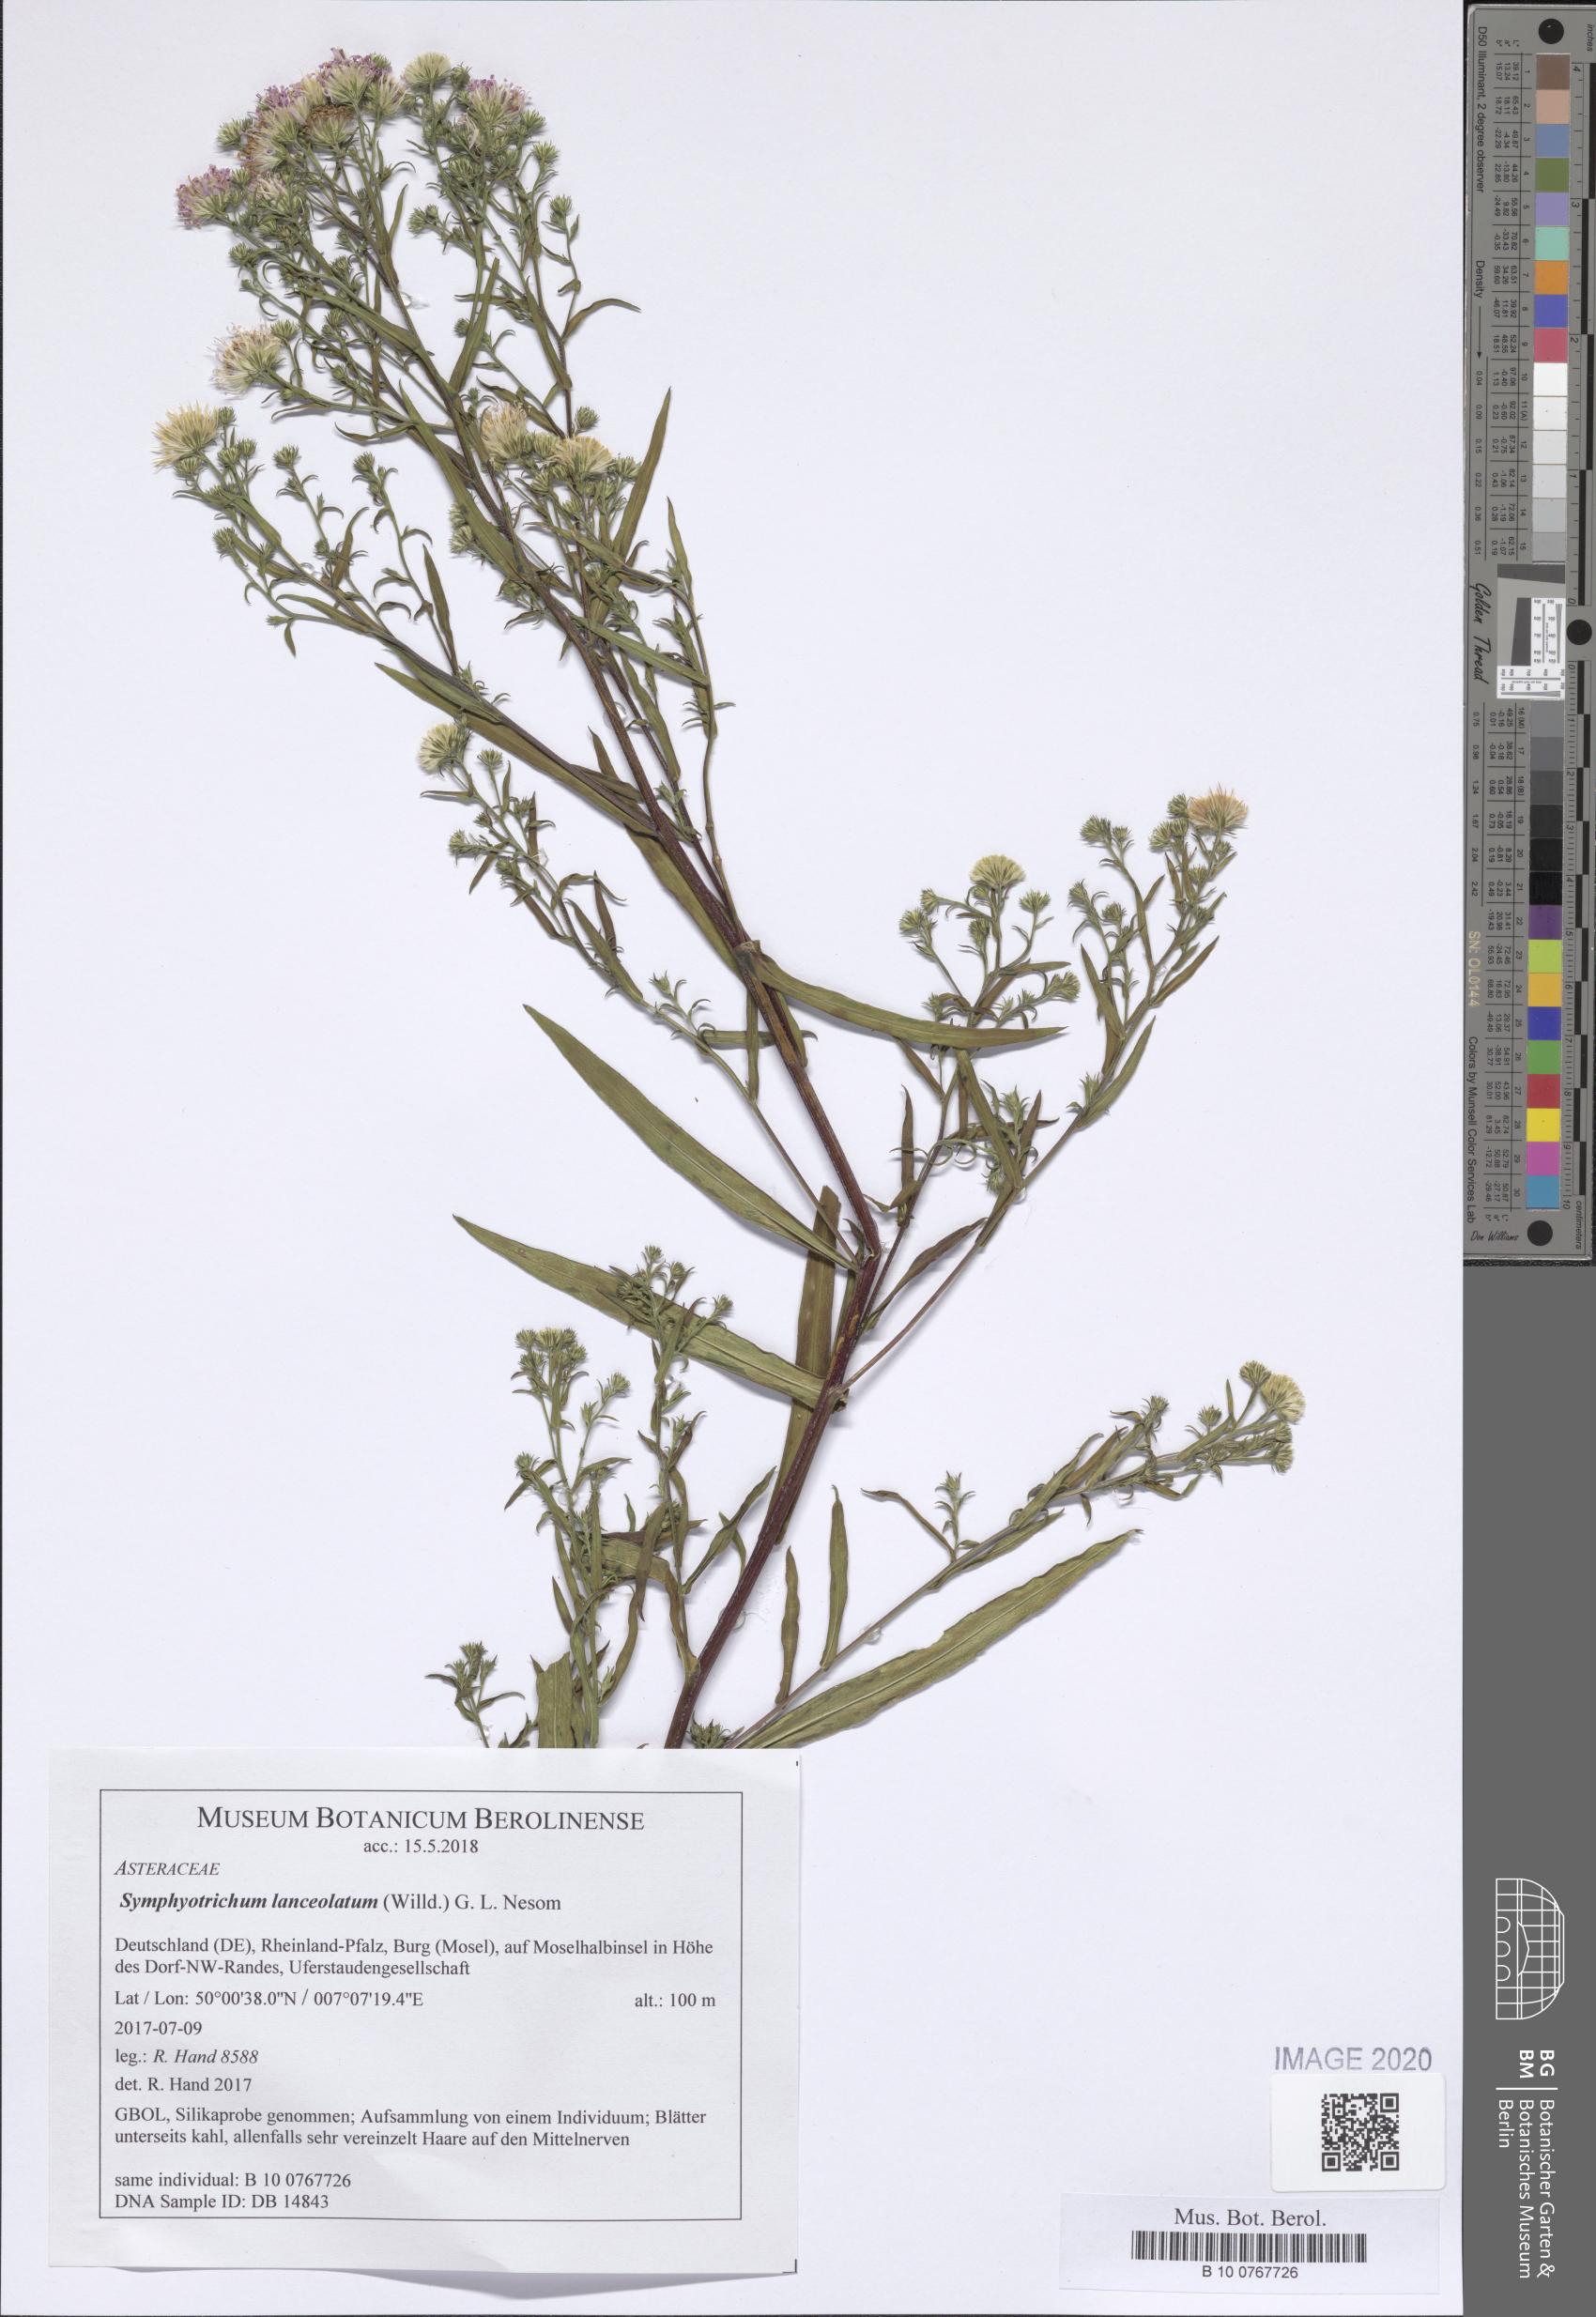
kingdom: Plantae
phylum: Tracheophyta
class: Magnoliopsida
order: Asterales
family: Asteraceae
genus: Symphyotrichum
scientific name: Symphyotrichum lanceolatum
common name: Panicled aster
